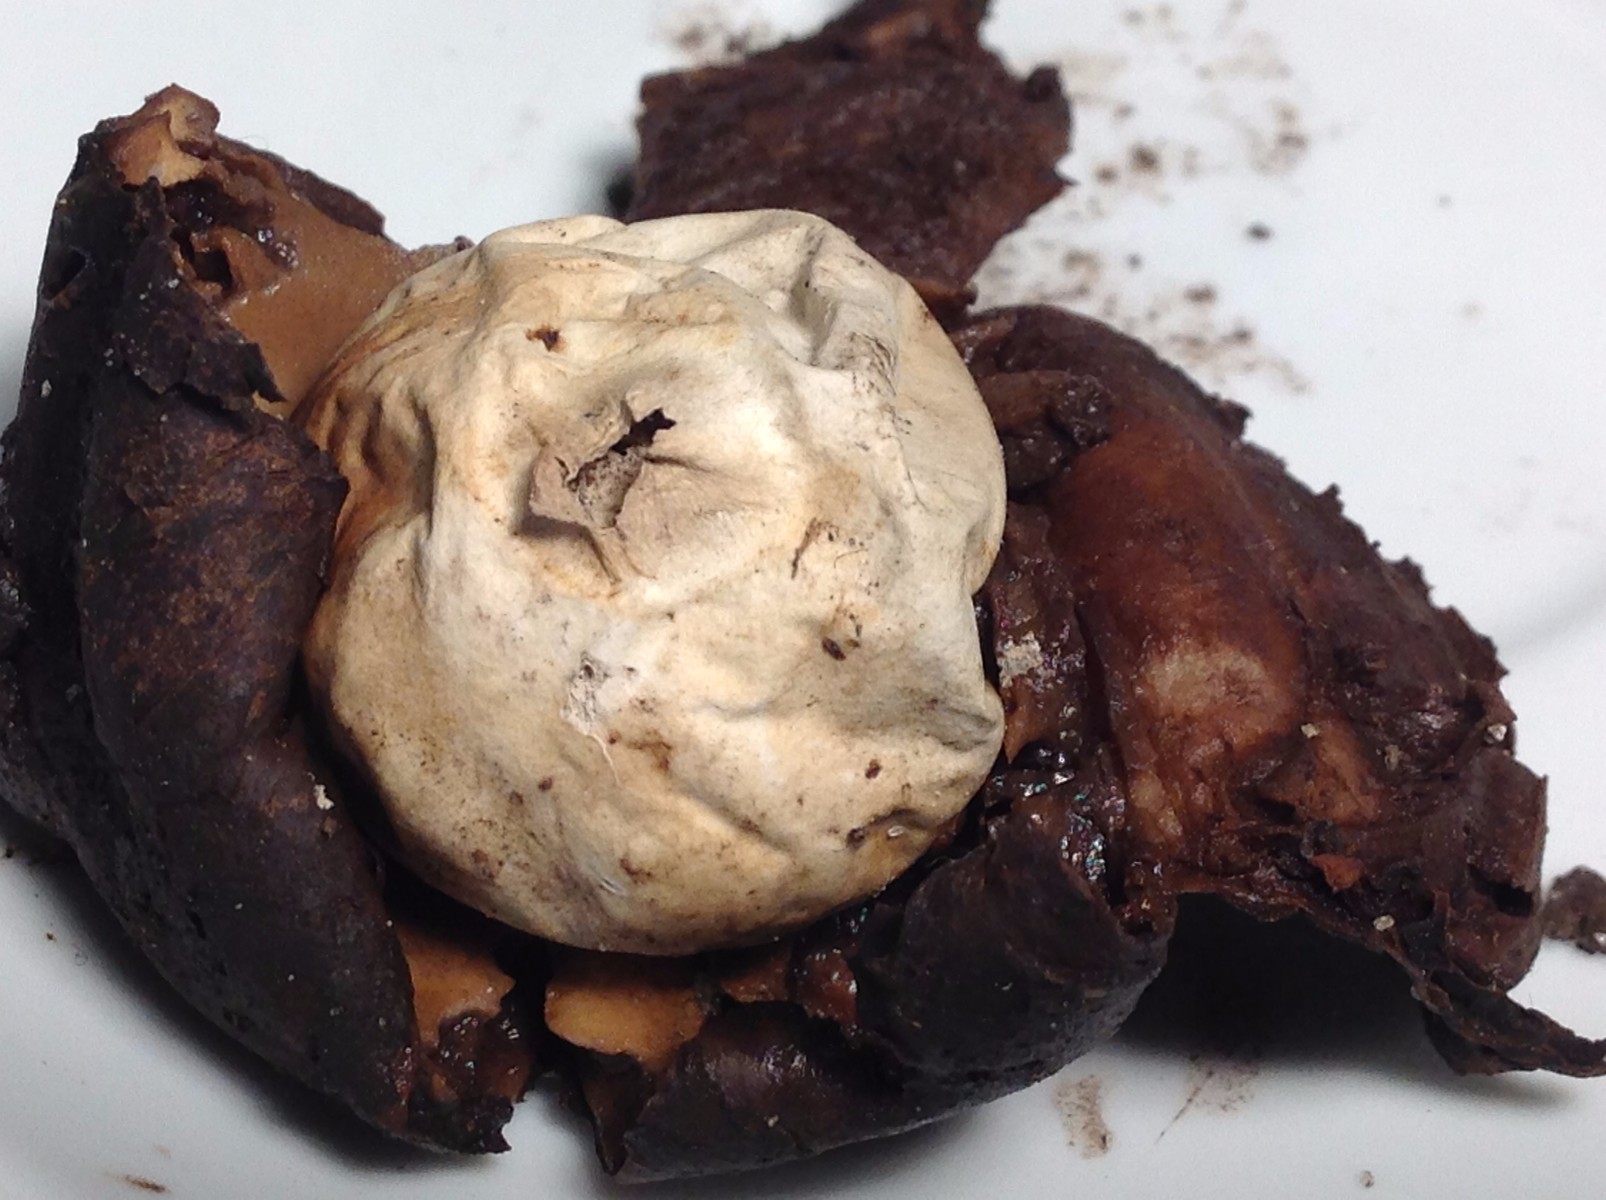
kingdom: Fungi
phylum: Basidiomycota
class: Agaricomycetes
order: Geastrales
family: Geastraceae
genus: Geastrum
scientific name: Geastrum
